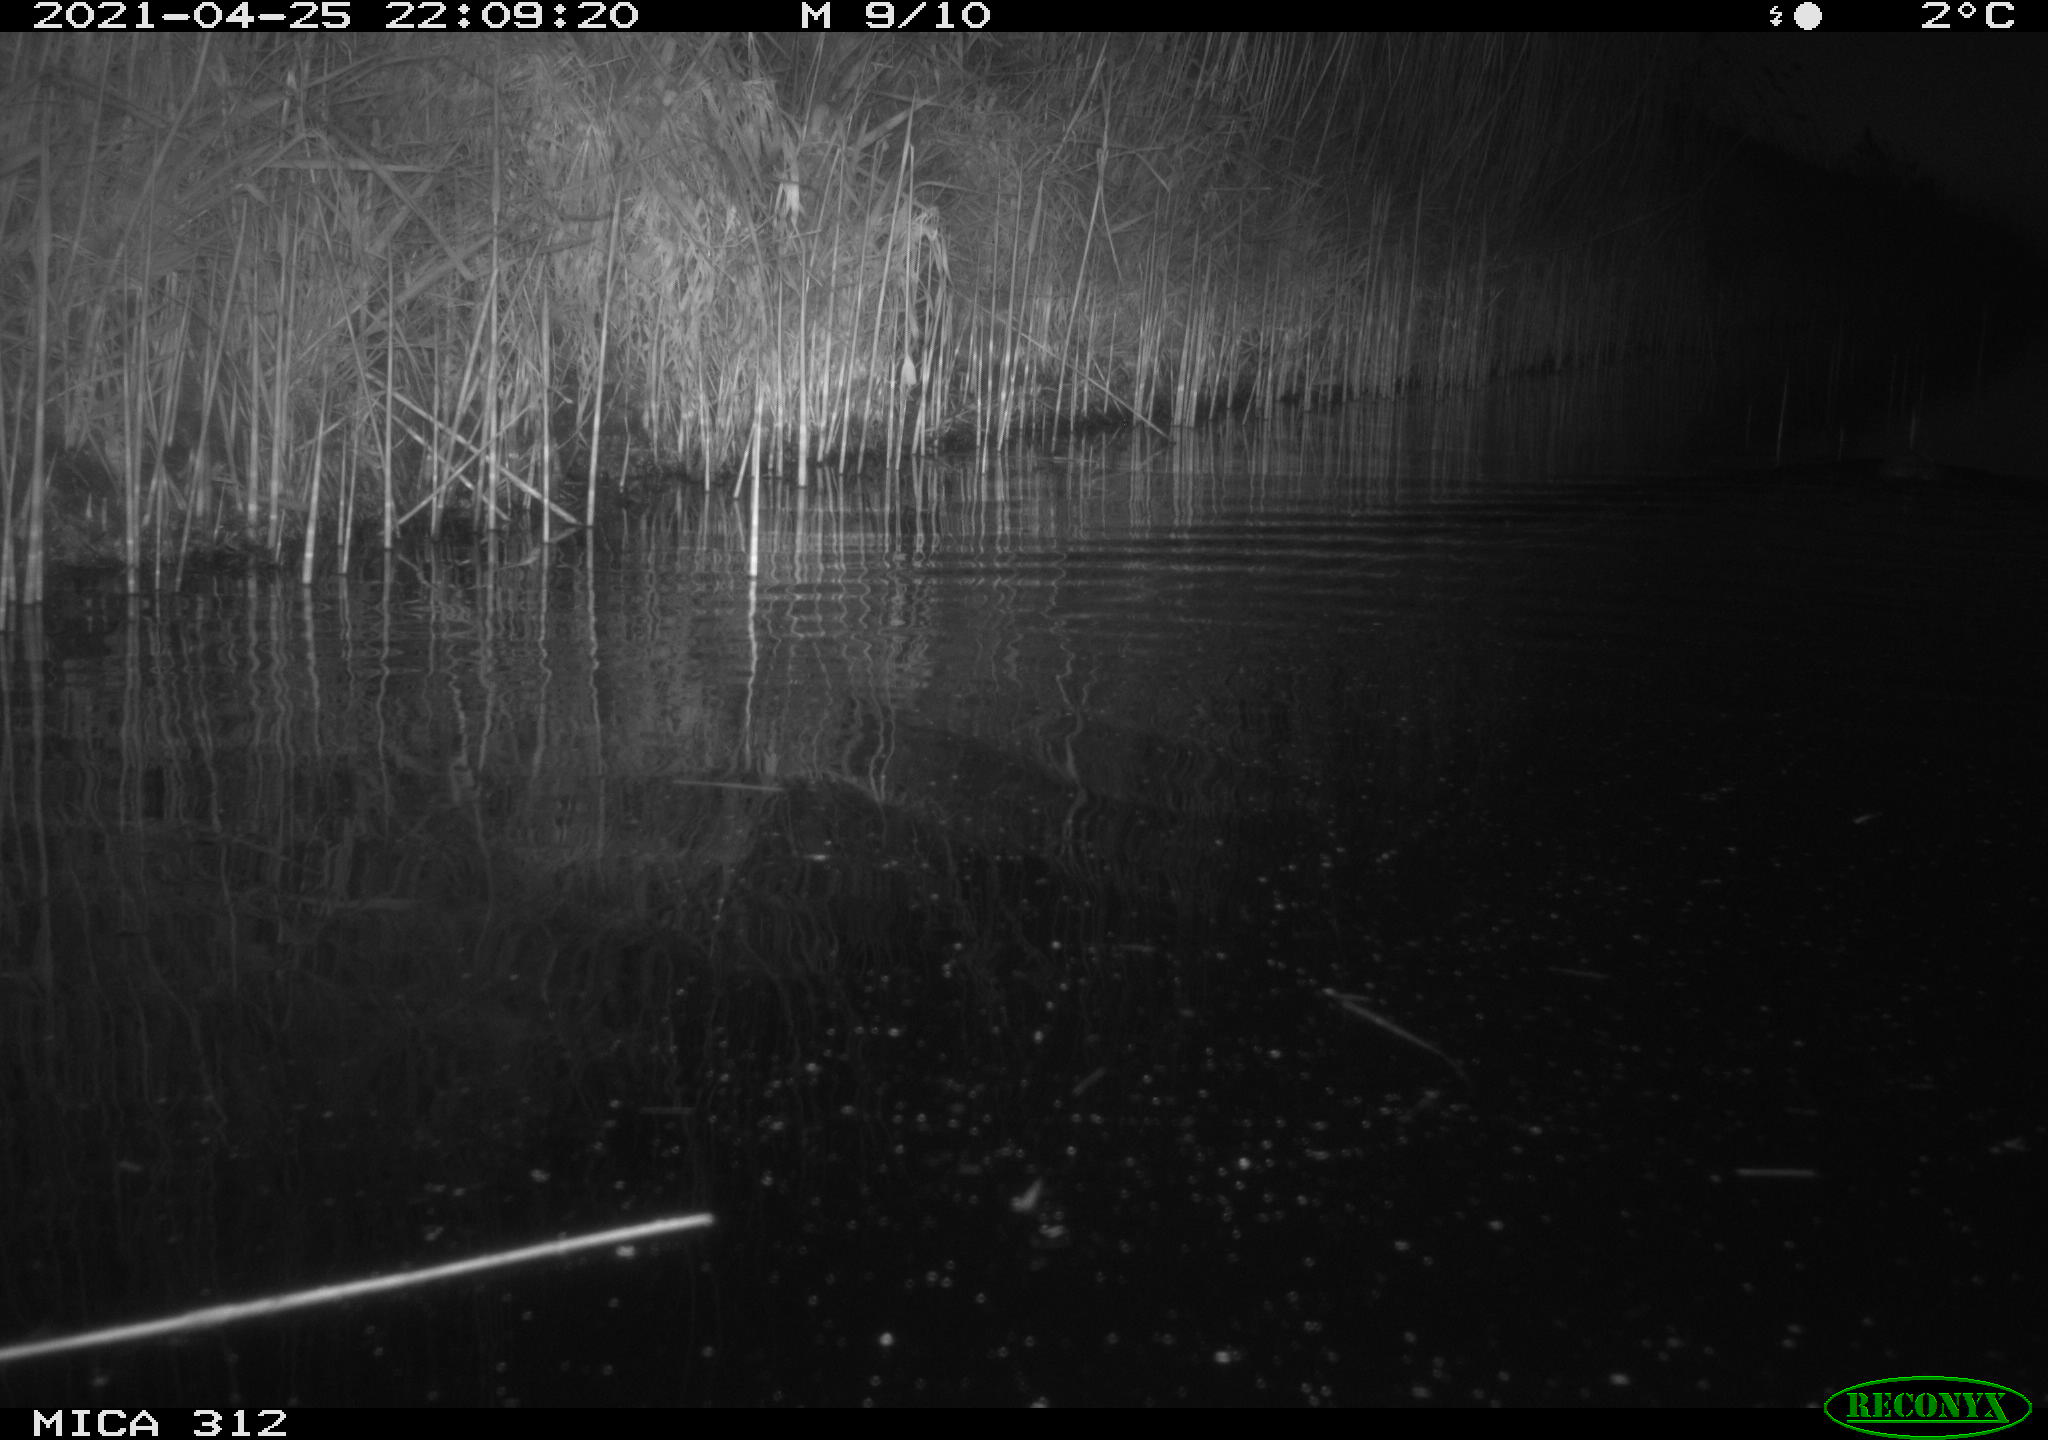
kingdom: Animalia
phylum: Chordata
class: Mammalia
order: Rodentia
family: Cricetidae
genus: Ondatra
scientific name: Ondatra zibethicus
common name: Muskrat
